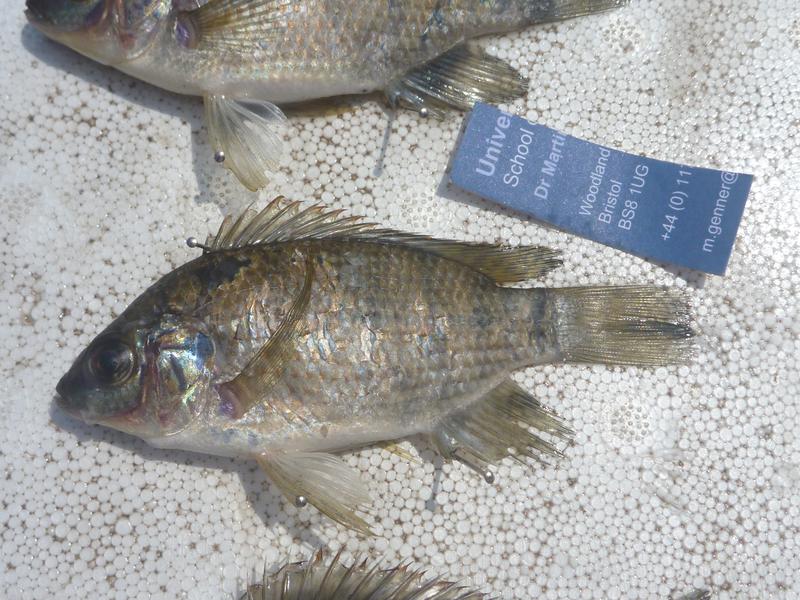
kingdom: Animalia
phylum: Chordata
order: Perciformes
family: Cichlidae
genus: Oreochromis
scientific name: Oreochromis upembae
